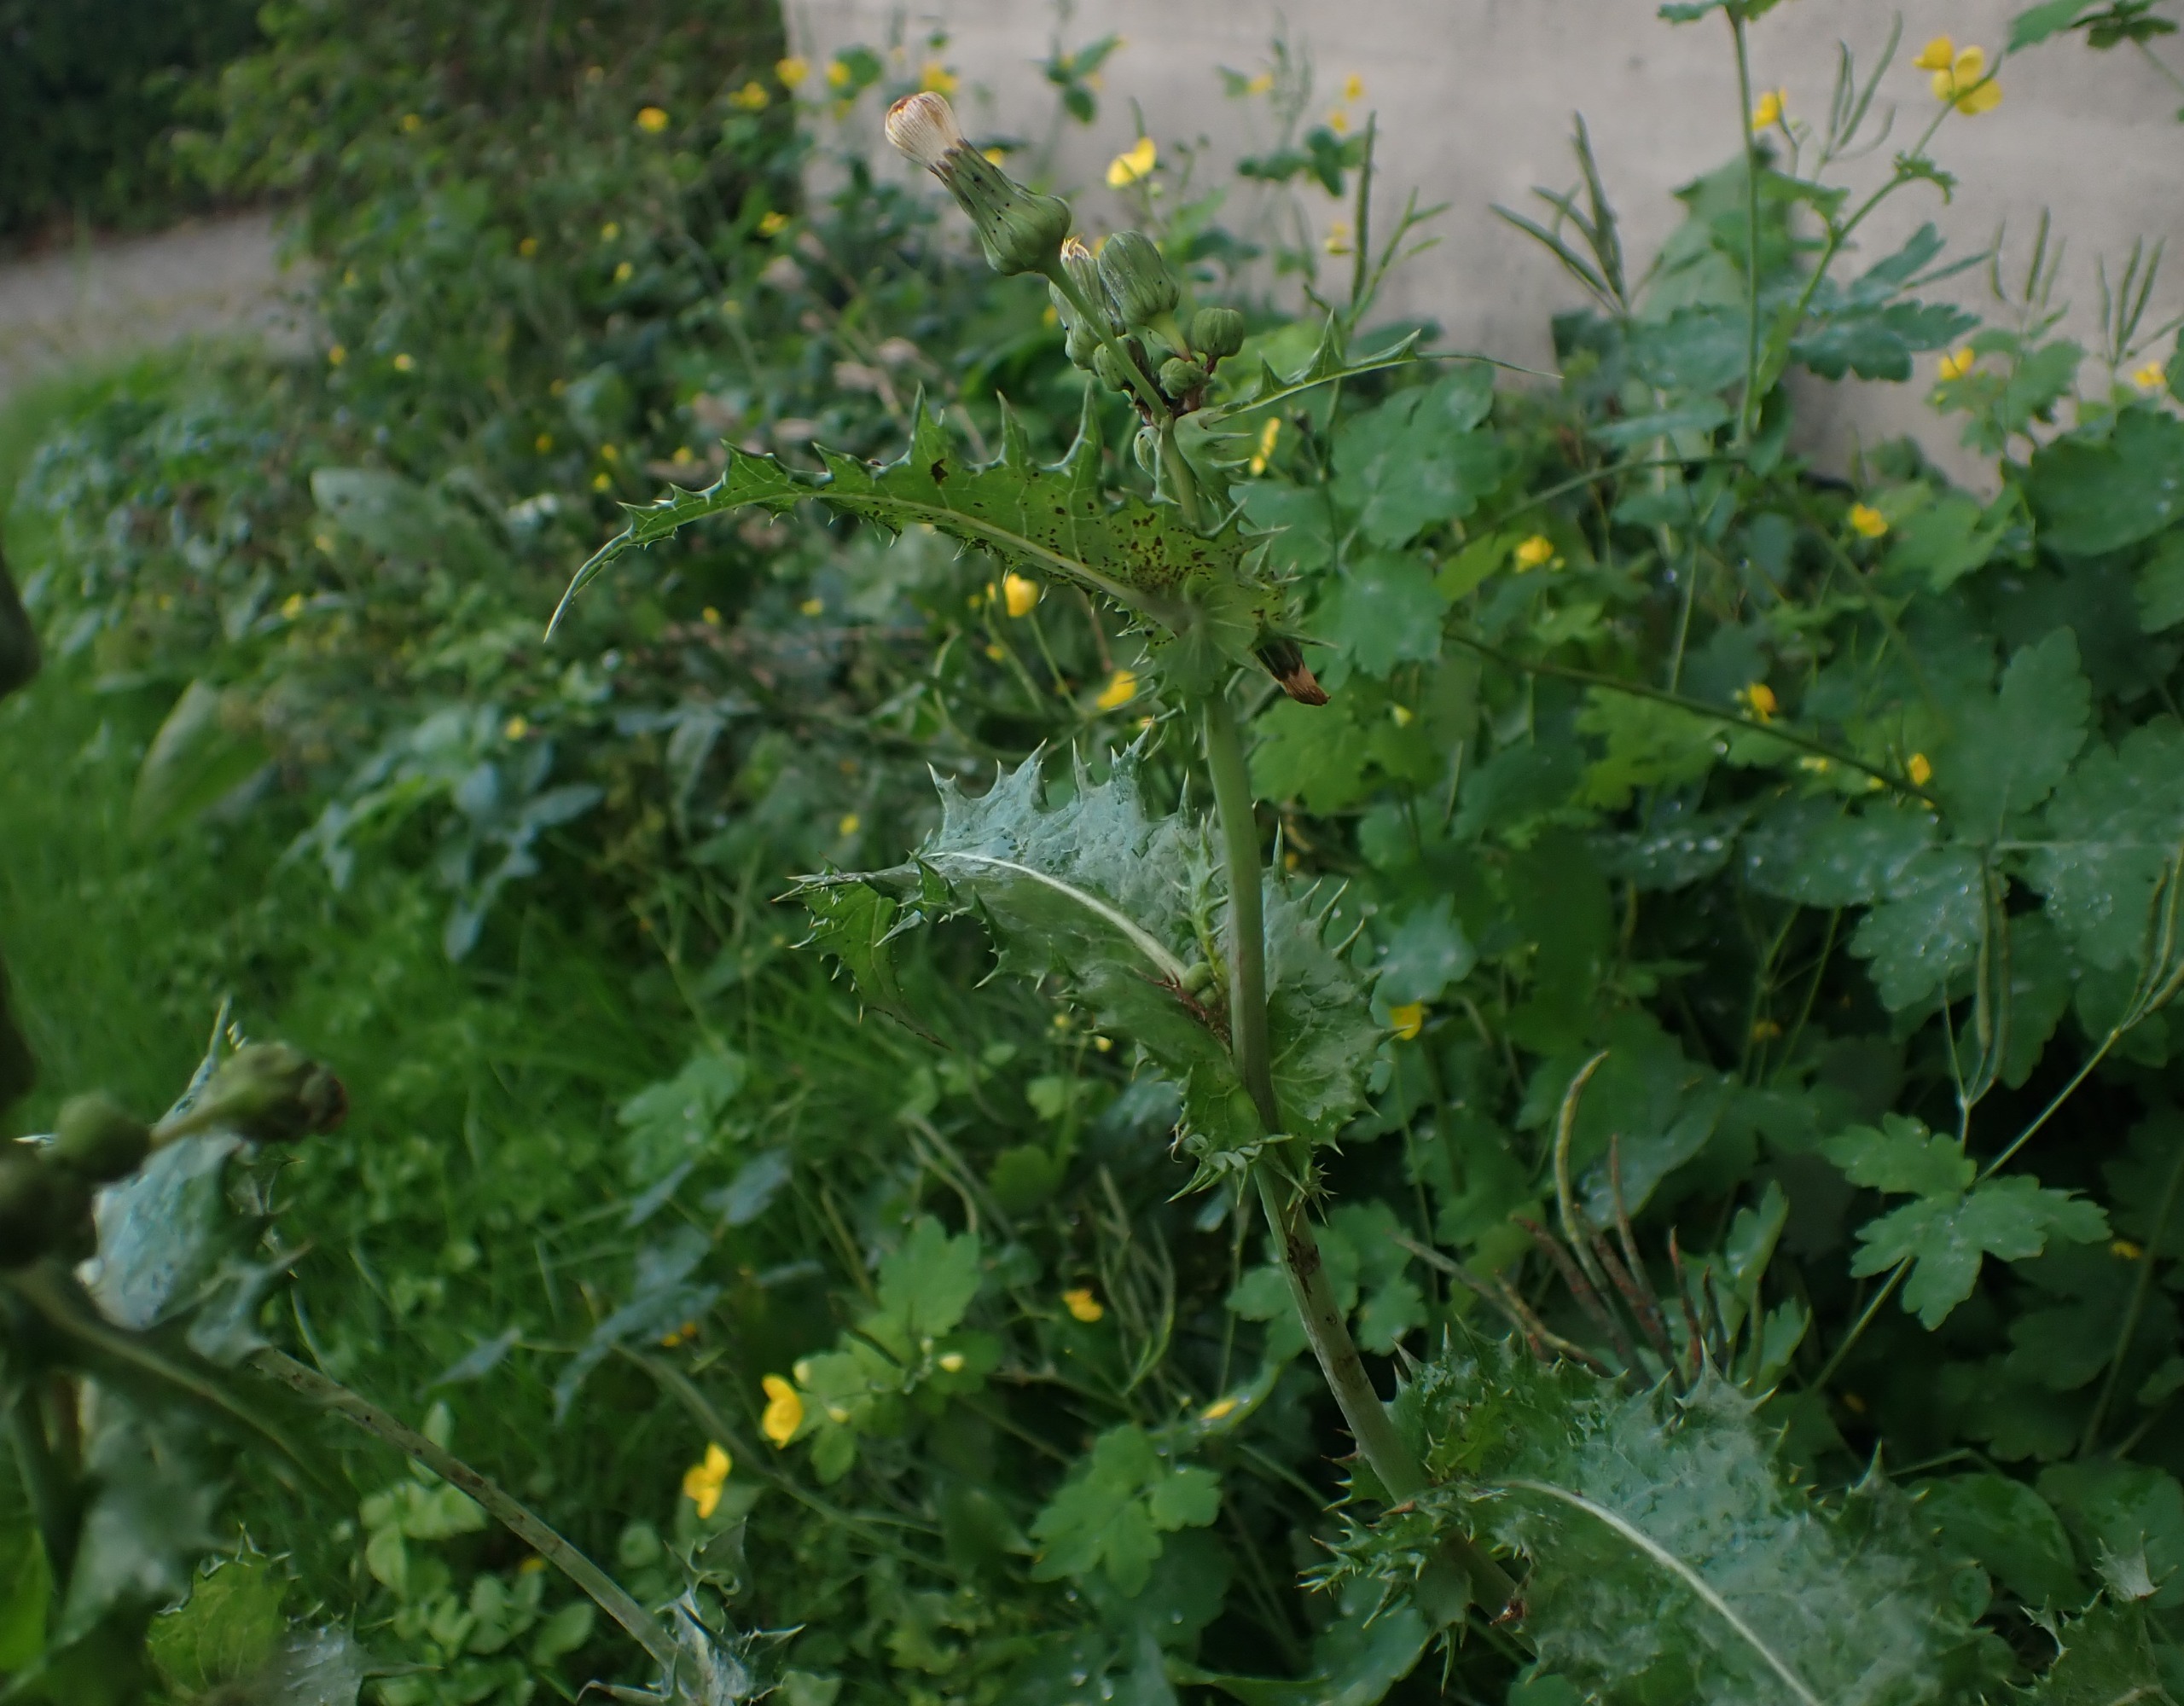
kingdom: Plantae
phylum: Tracheophyta
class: Magnoliopsida
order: Asterales
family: Asteraceae
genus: Sonchus
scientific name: Sonchus asper
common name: Ru svinemælk
